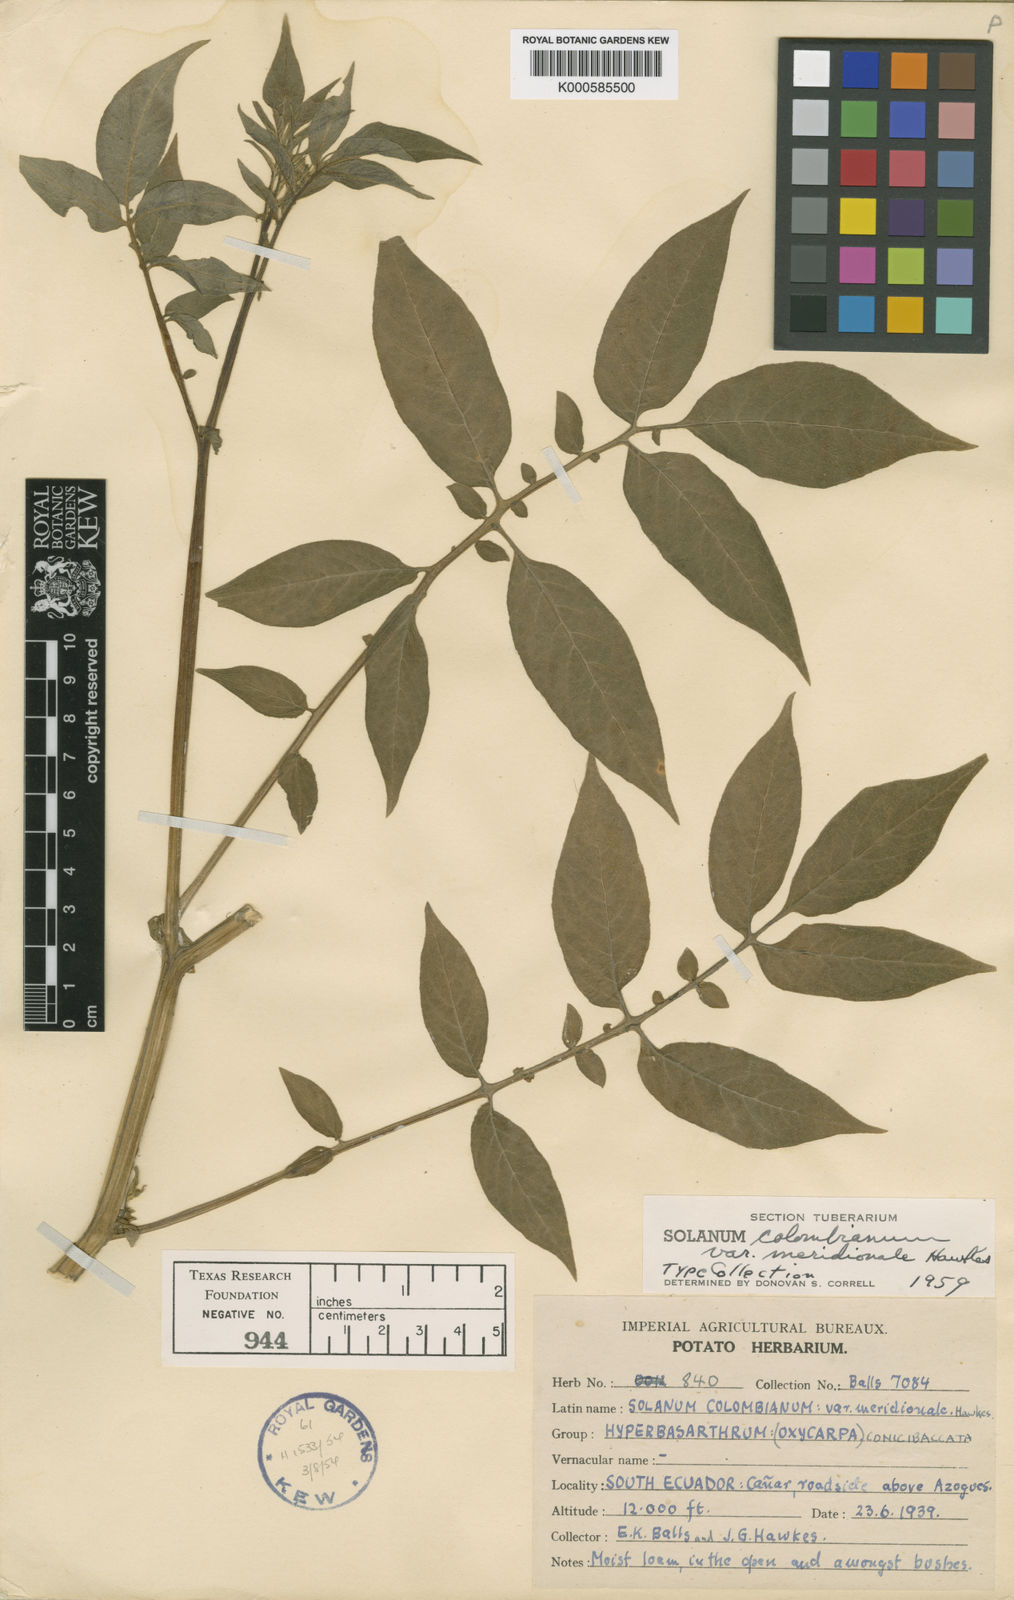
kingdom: Plantae
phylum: Tracheophyta
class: Magnoliopsida
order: Solanales
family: Solanaceae
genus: Solanum
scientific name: Solanum colombianum
